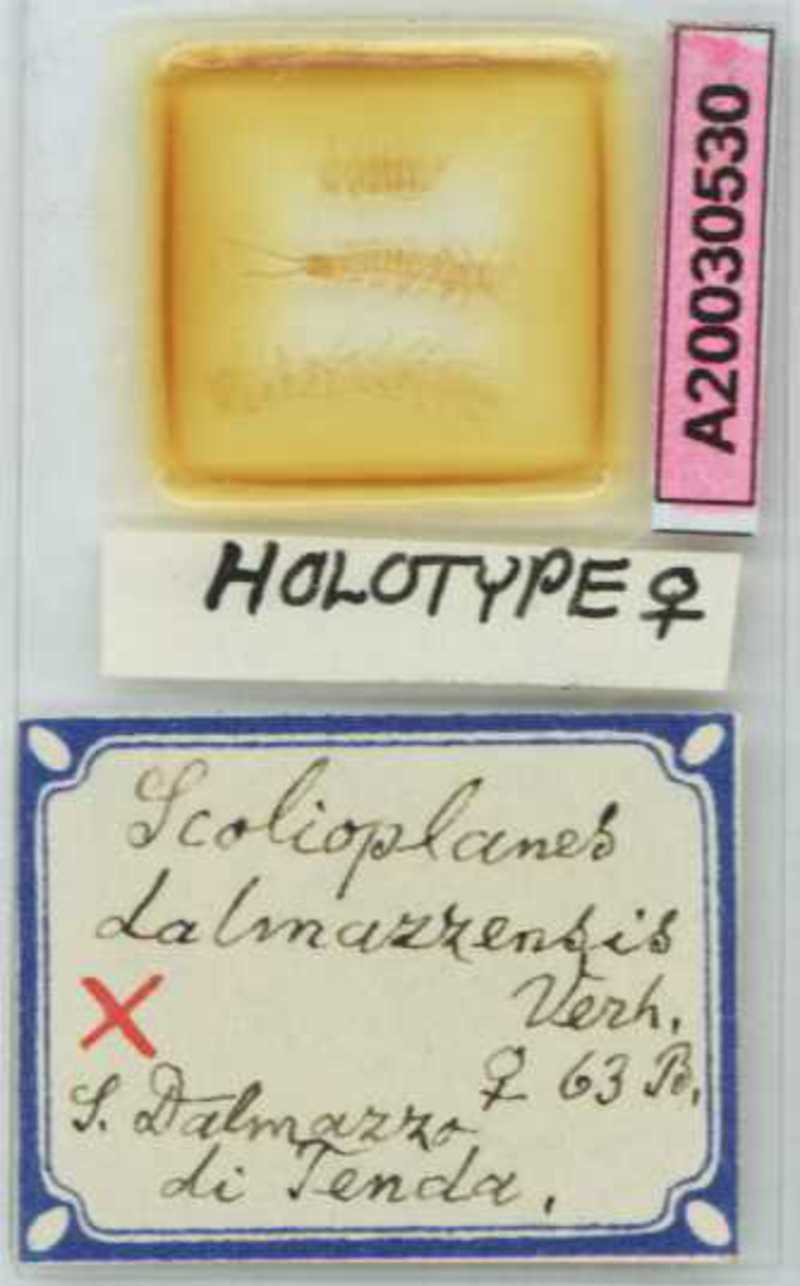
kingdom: Animalia
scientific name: Animalia
